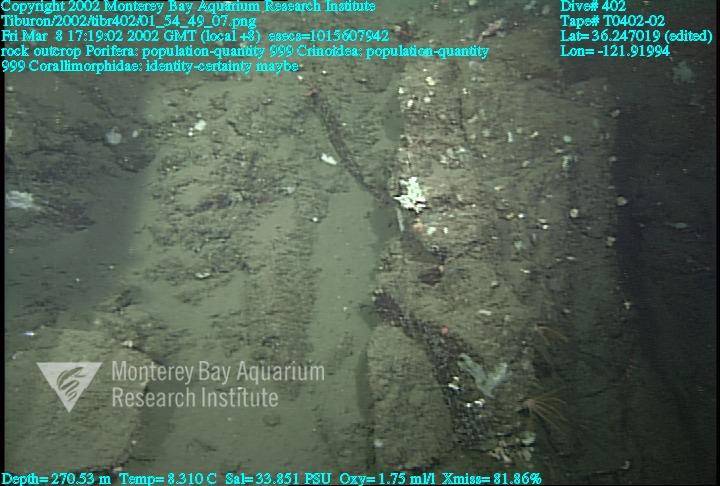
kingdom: Animalia
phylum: Porifera
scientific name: Porifera
